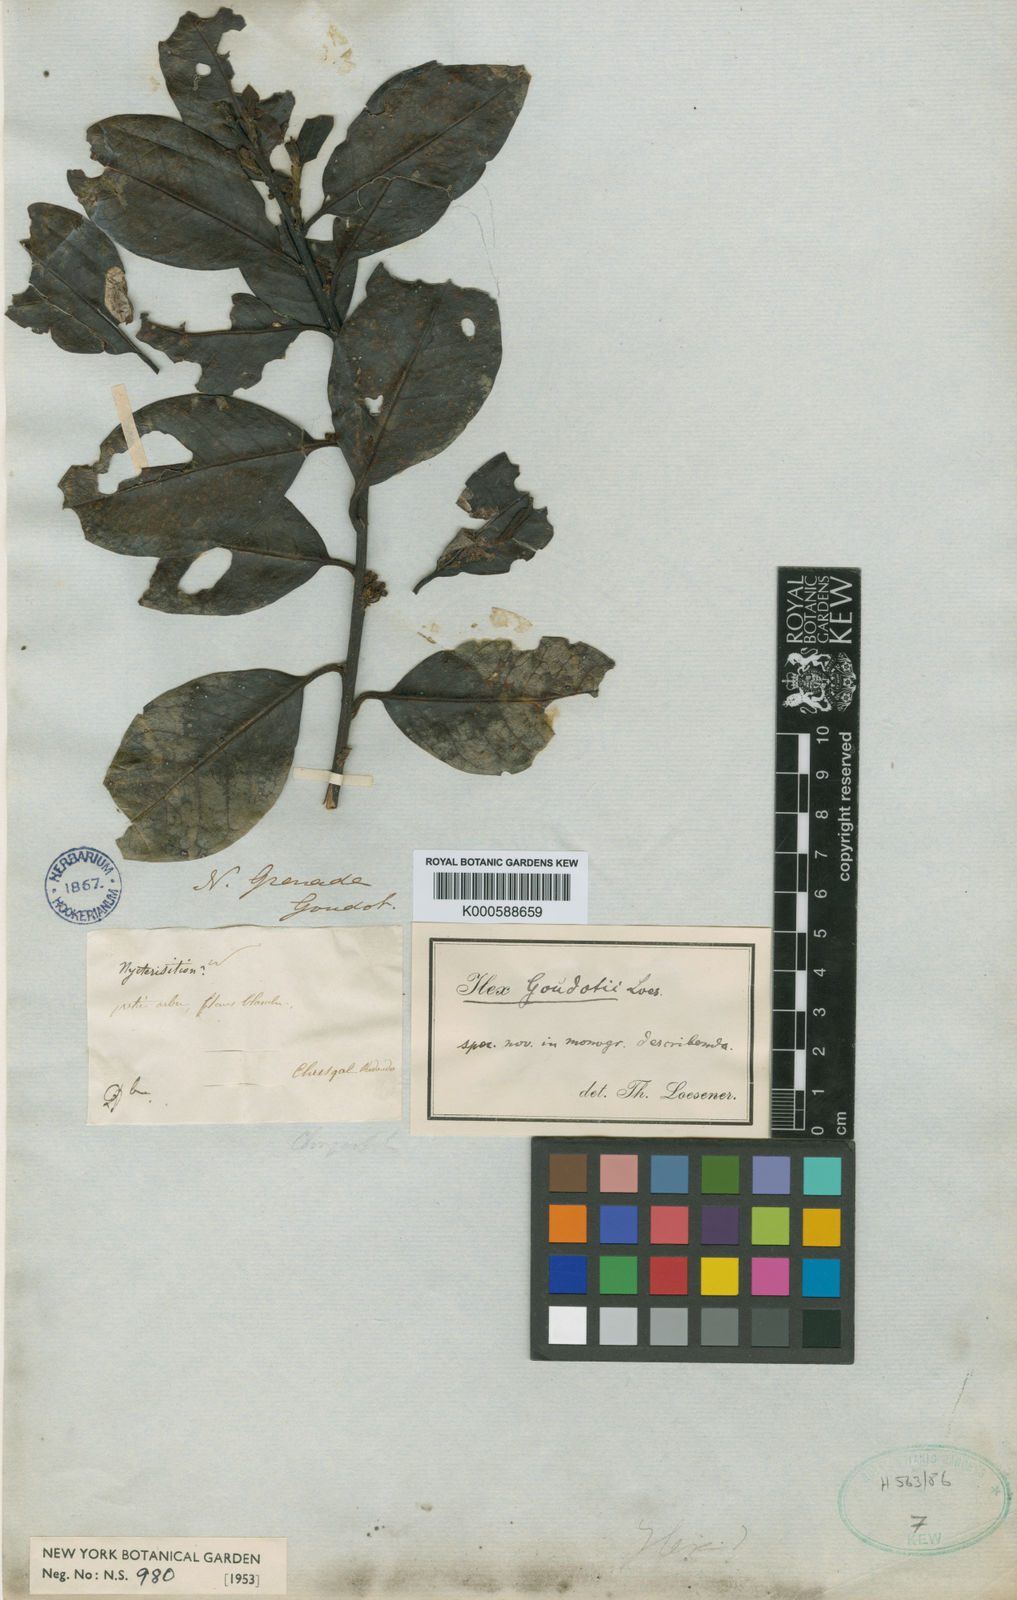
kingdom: Plantae
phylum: Tracheophyta
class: Magnoliopsida
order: Aquifoliales
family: Aquifoliaceae
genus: Ilex
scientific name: Ilex goudotii
